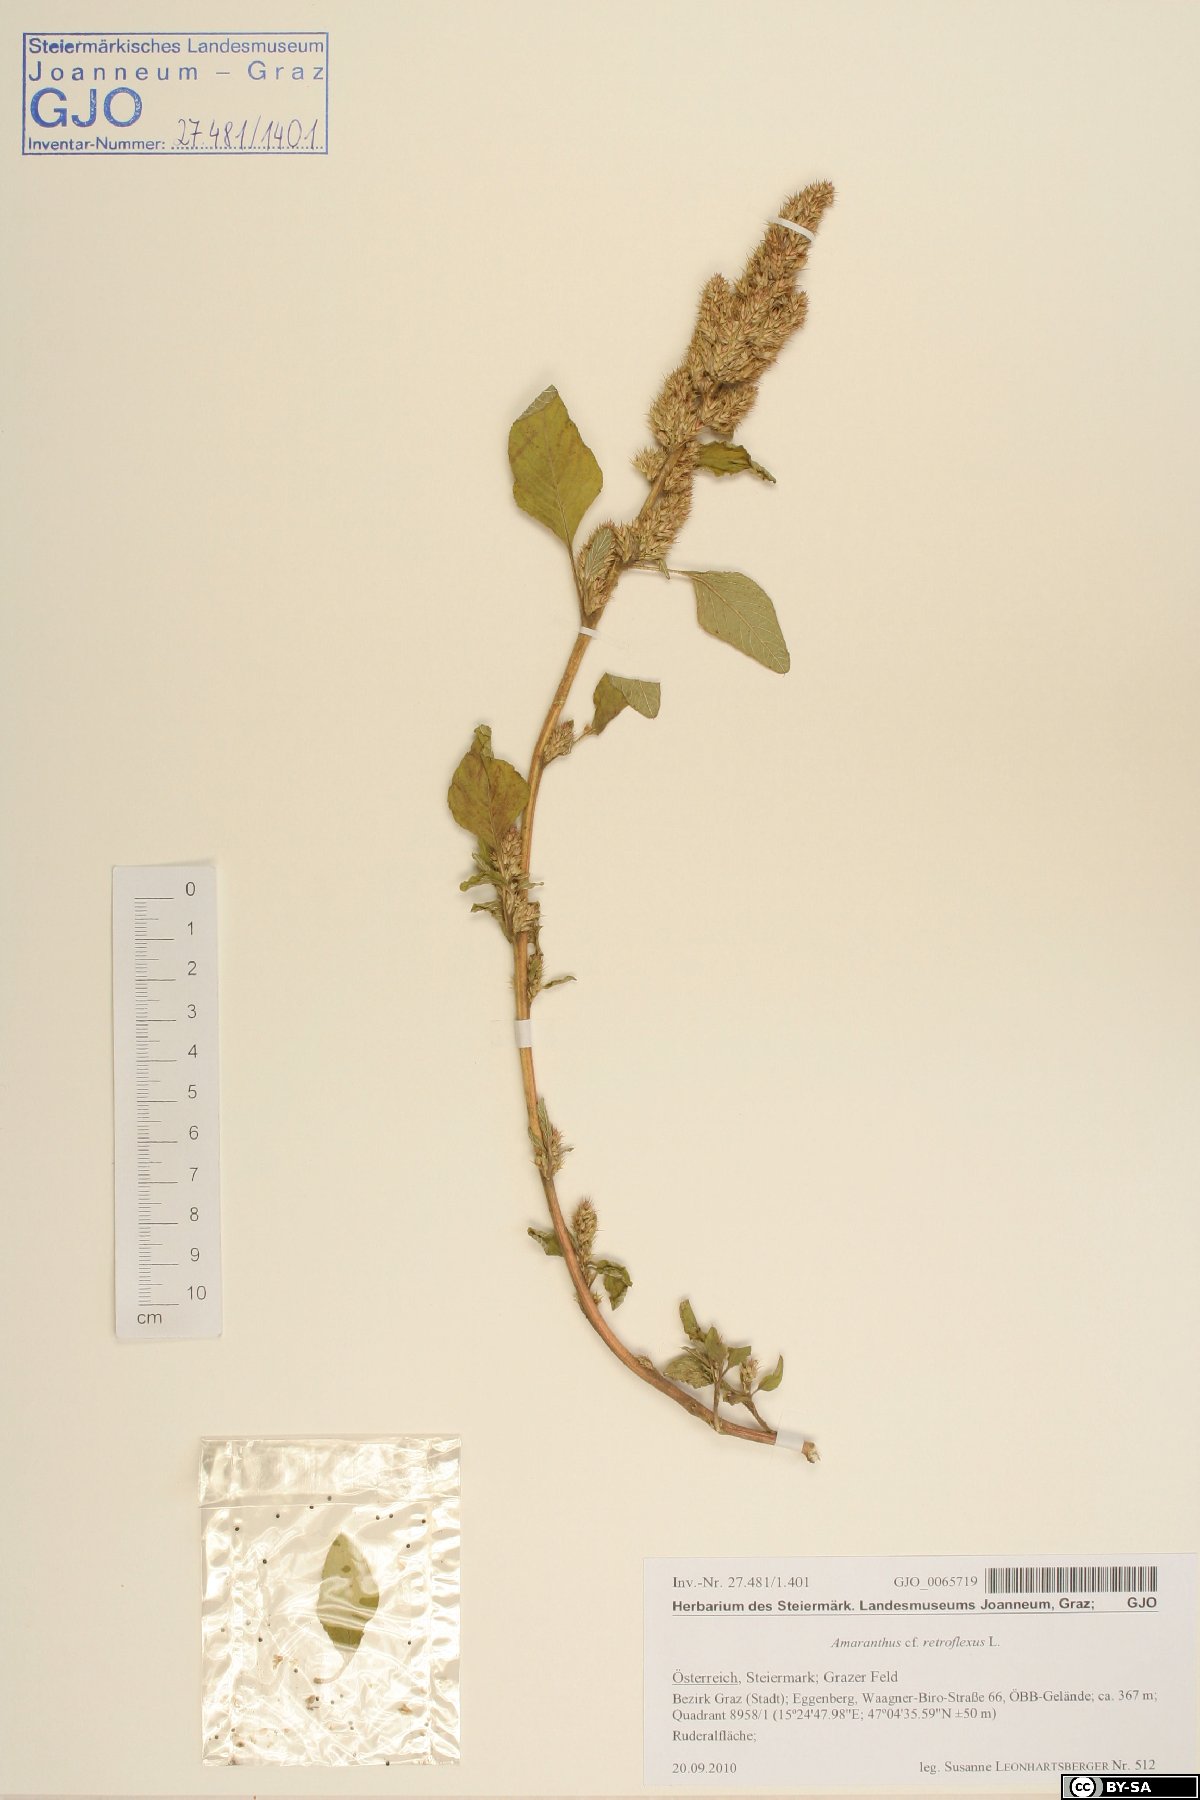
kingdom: Plantae
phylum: Tracheophyta
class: Magnoliopsida
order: Caryophyllales
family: Amaranthaceae
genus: Amaranthus
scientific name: Amaranthus retroflexus
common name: Redroot amaranth
